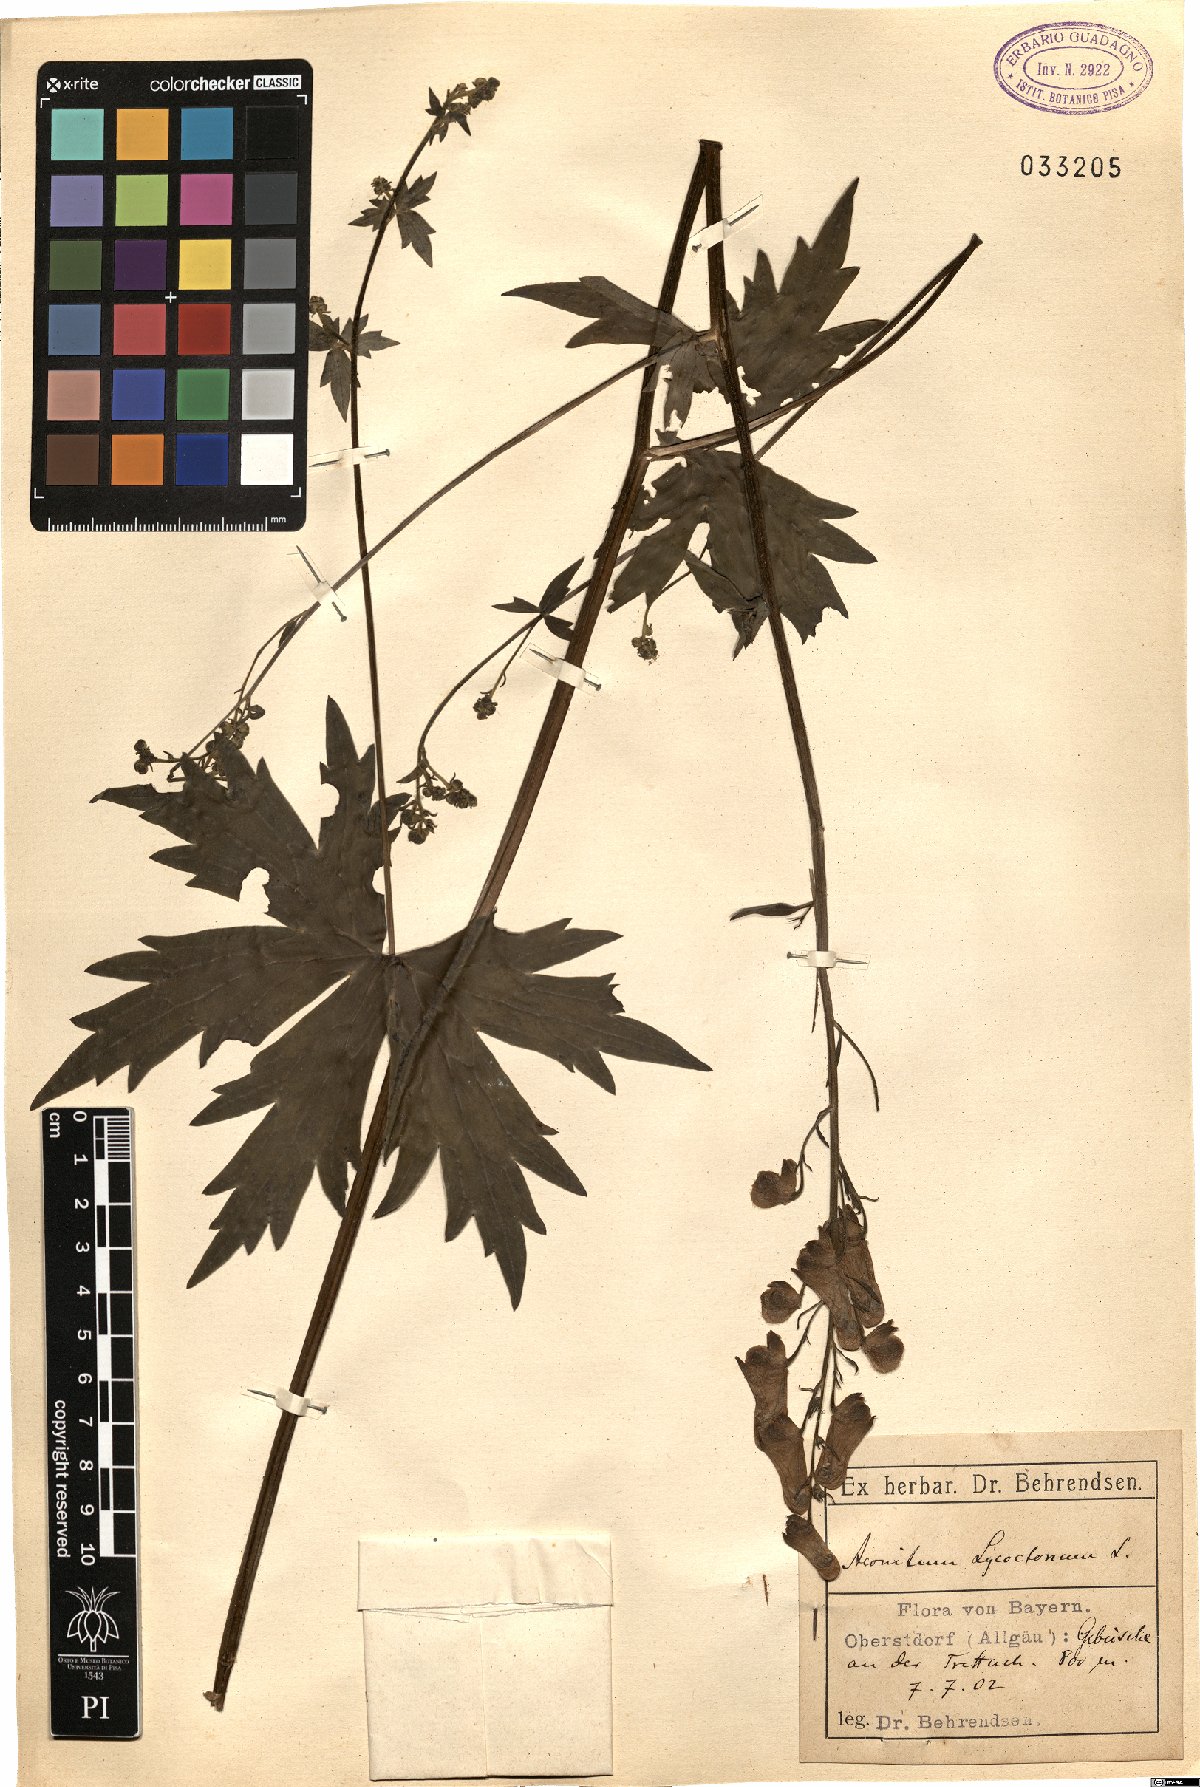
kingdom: Plantae
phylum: Tracheophyta
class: Magnoliopsida
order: Ranunculales
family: Ranunculaceae
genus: Aconitum
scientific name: Aconitum lycoctonum
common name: Wolf's-bane
